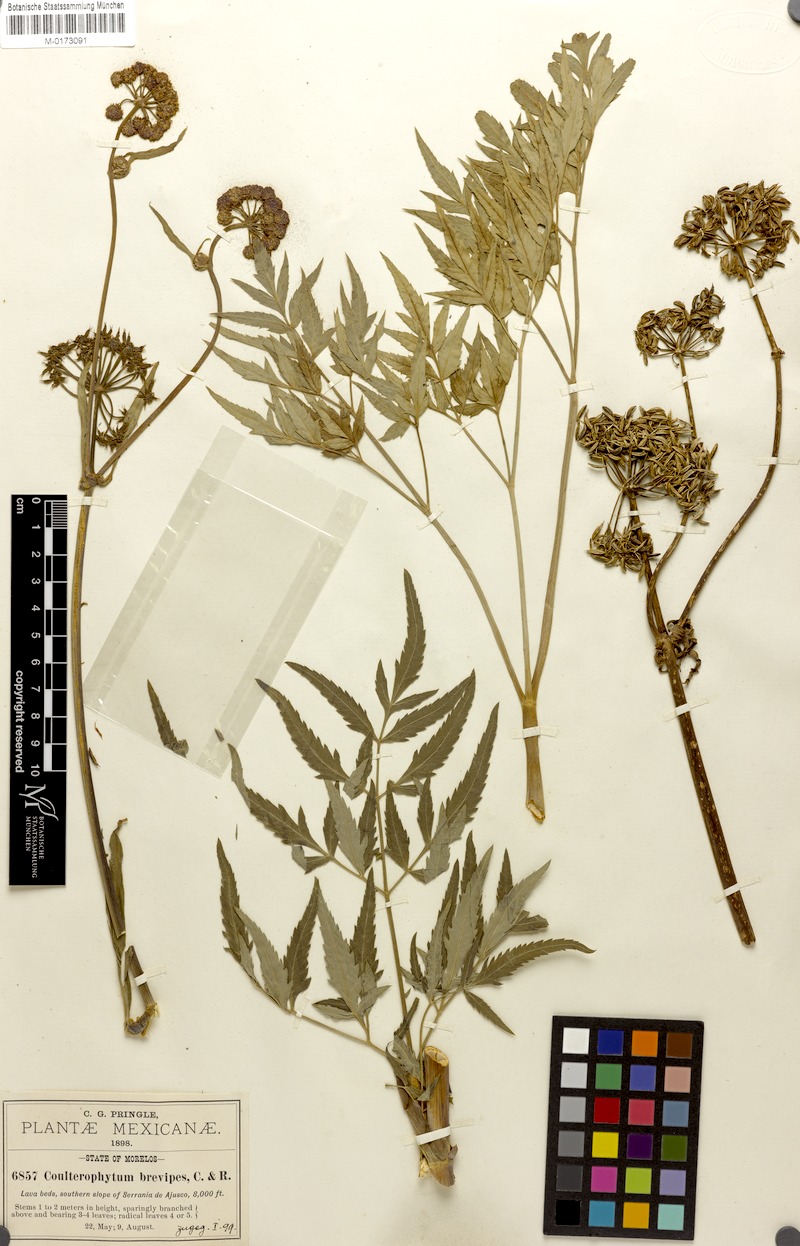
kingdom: Plantae
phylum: Tracheophyta
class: Magnoliopsida
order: Apiales
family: Apiaceae
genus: Arracacia
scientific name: Arracacia quadrifida
